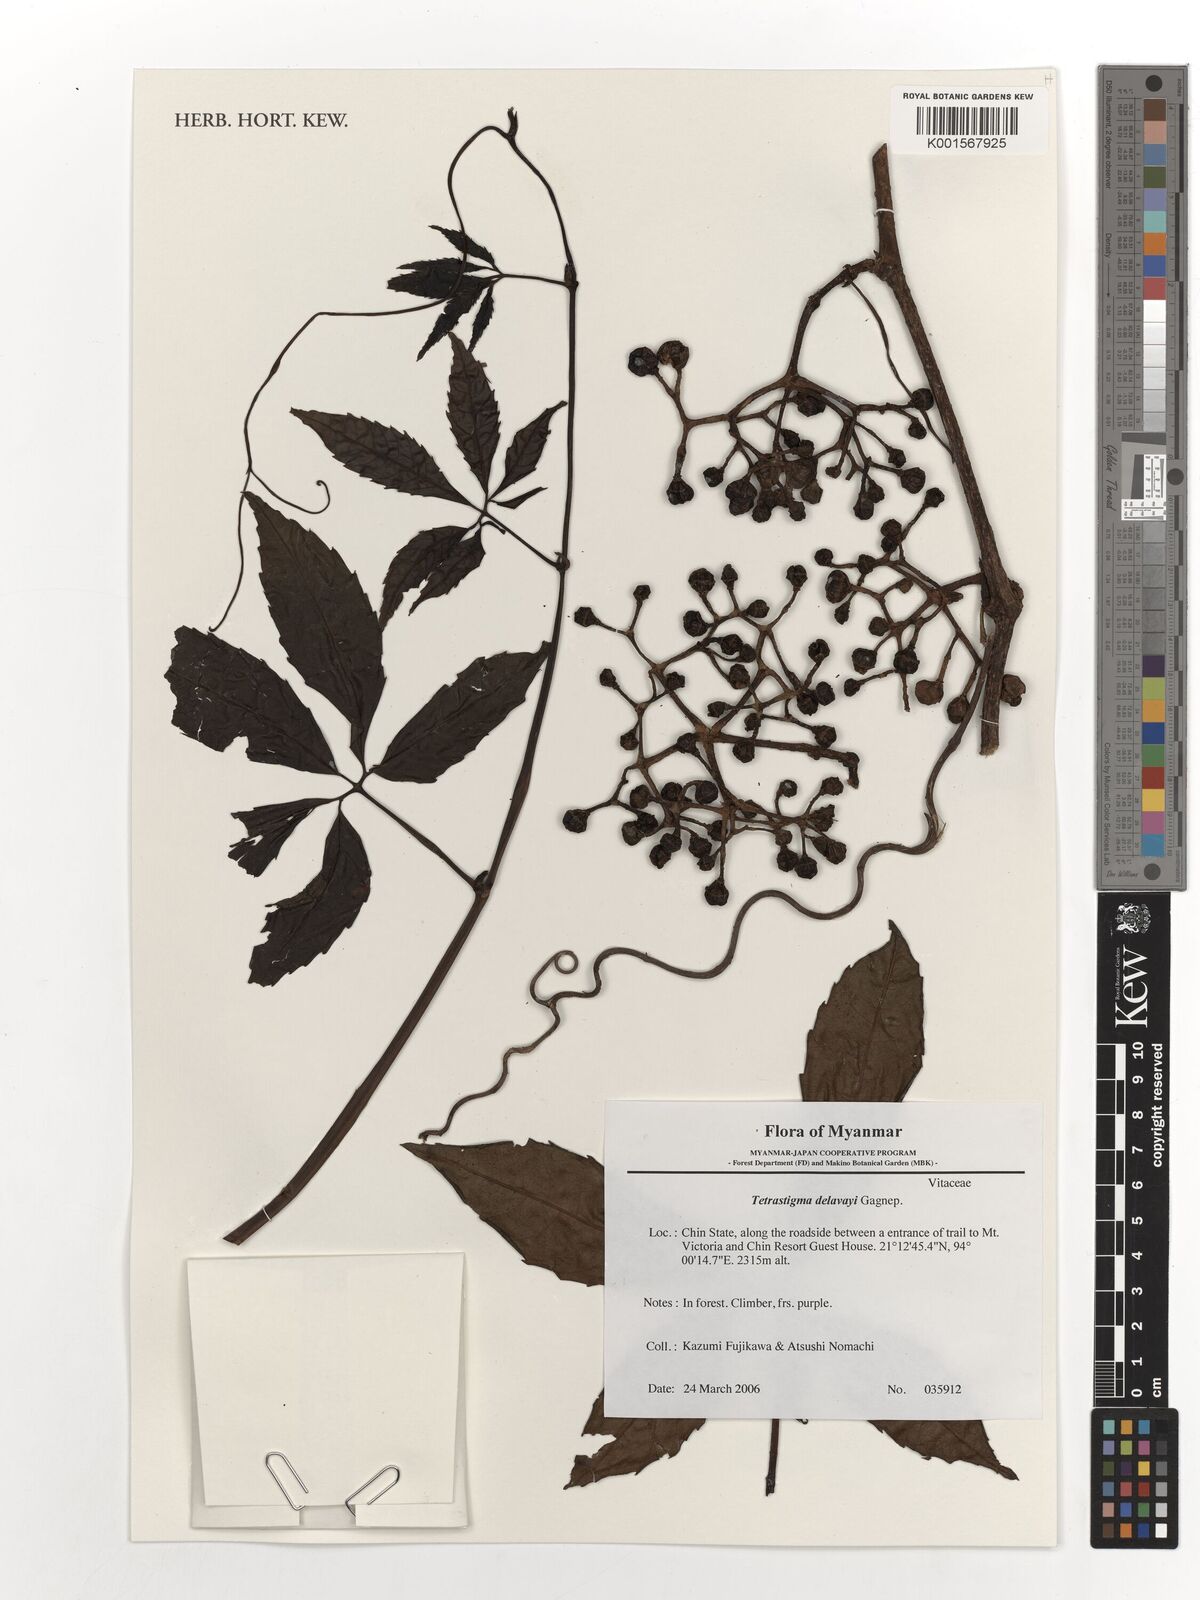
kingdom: Plantae
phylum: Tracheophyta
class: Magnoliopsida
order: Vitales
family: Vitaceae
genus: Tetrastigma
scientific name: Tetrastigma delavayi
